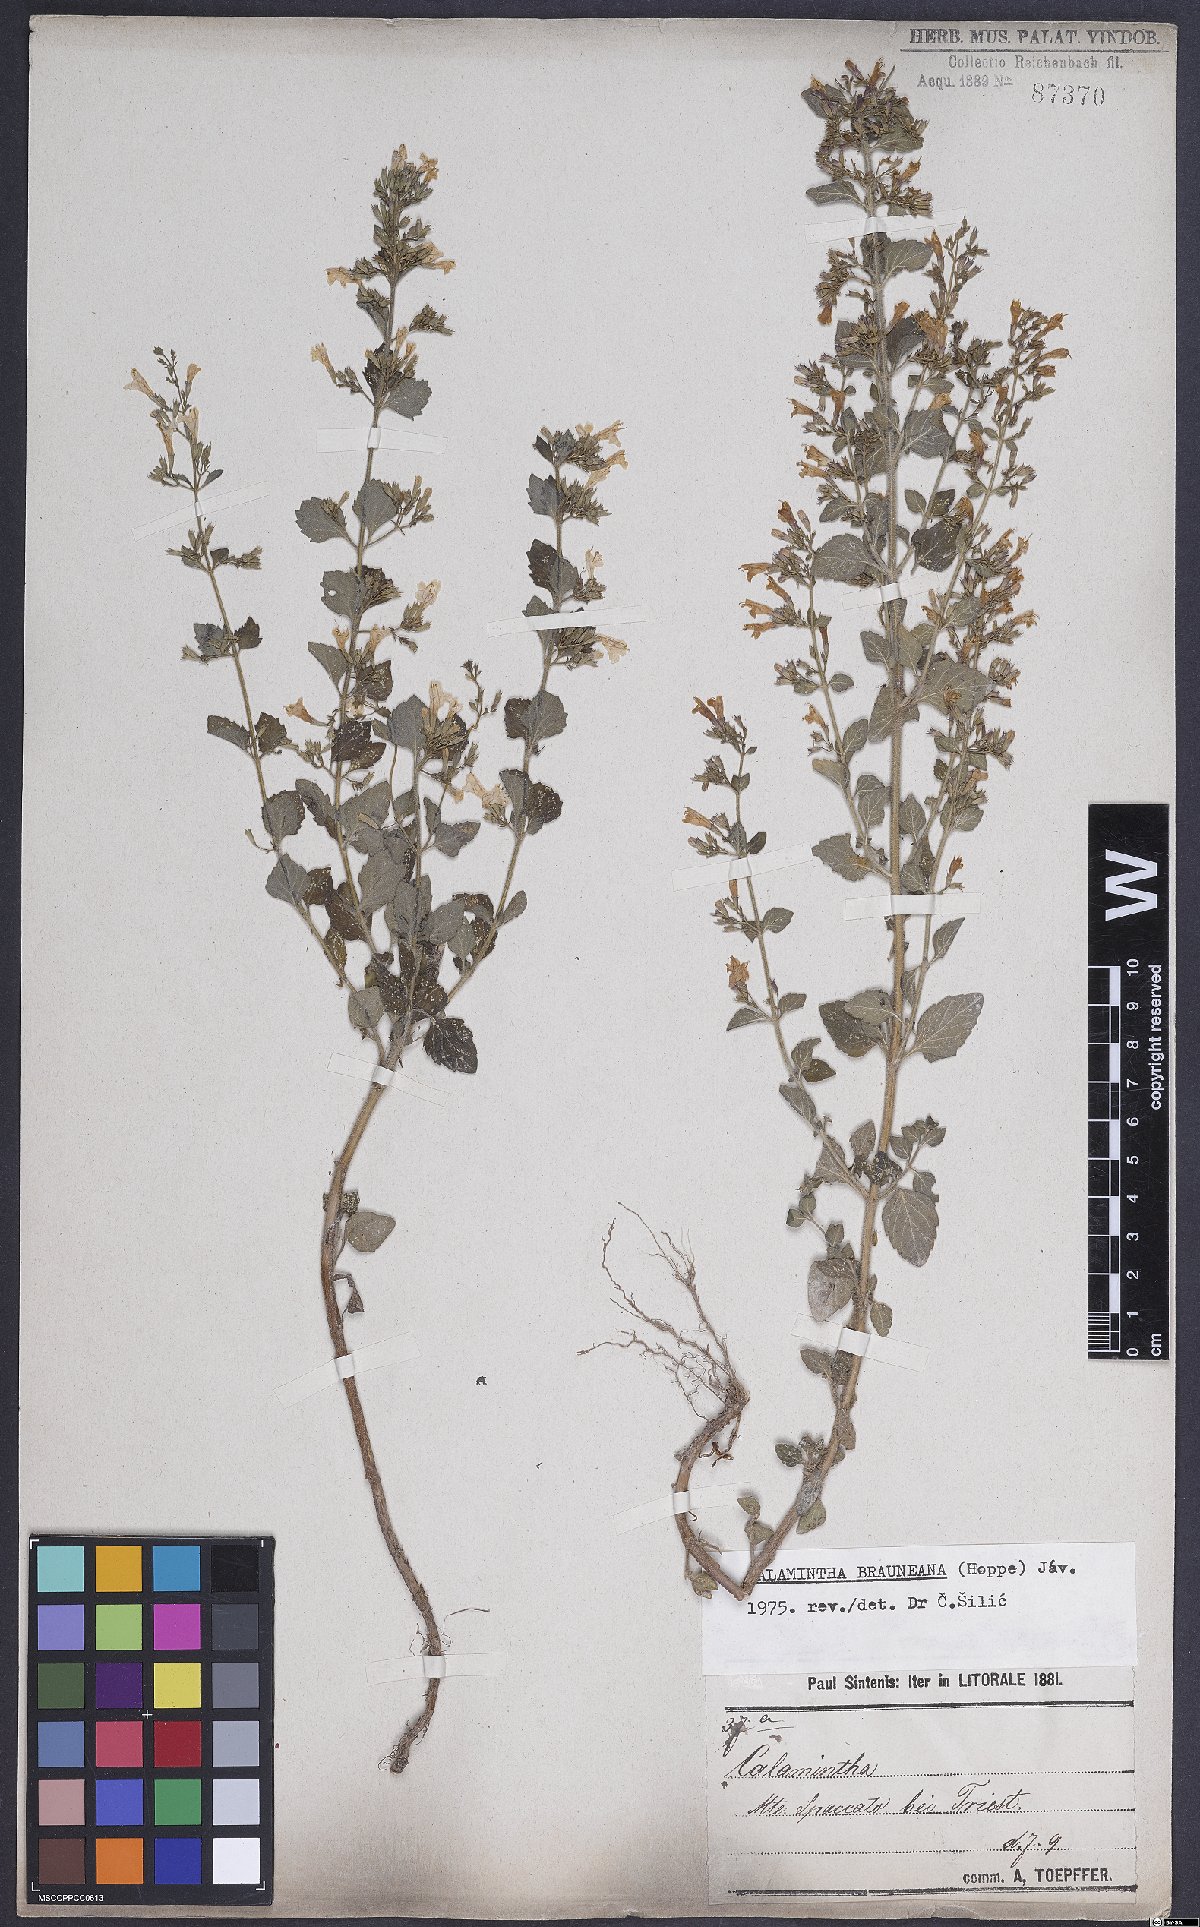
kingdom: Plantae
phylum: Tracheophyta
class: Magnoliopsida
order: Lamiales
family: Lamiaceae
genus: Clinopodium
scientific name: Clinopodium nepeta
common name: Lesser calamint
